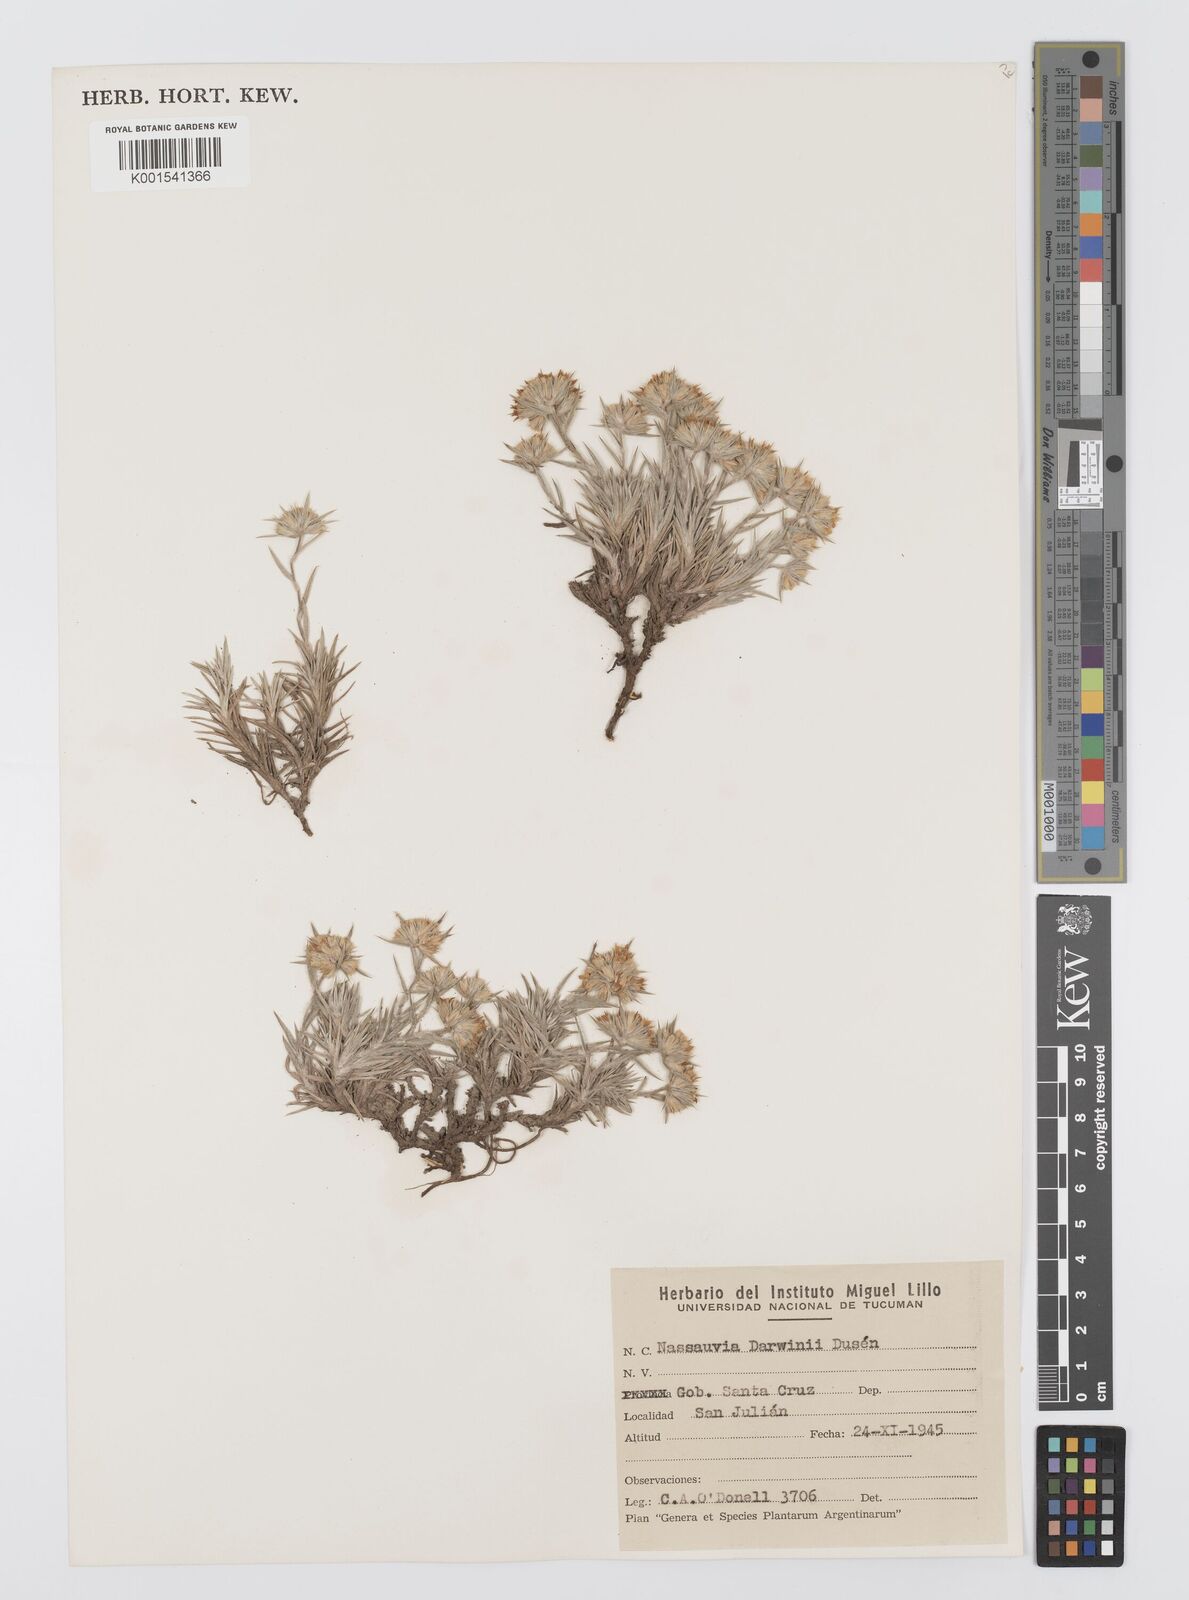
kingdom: Plantae
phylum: Tracheophyta
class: Magnoliopsida
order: Asterales
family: Asteraceae
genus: Nassauvia
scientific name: Nassauvia darwinii
